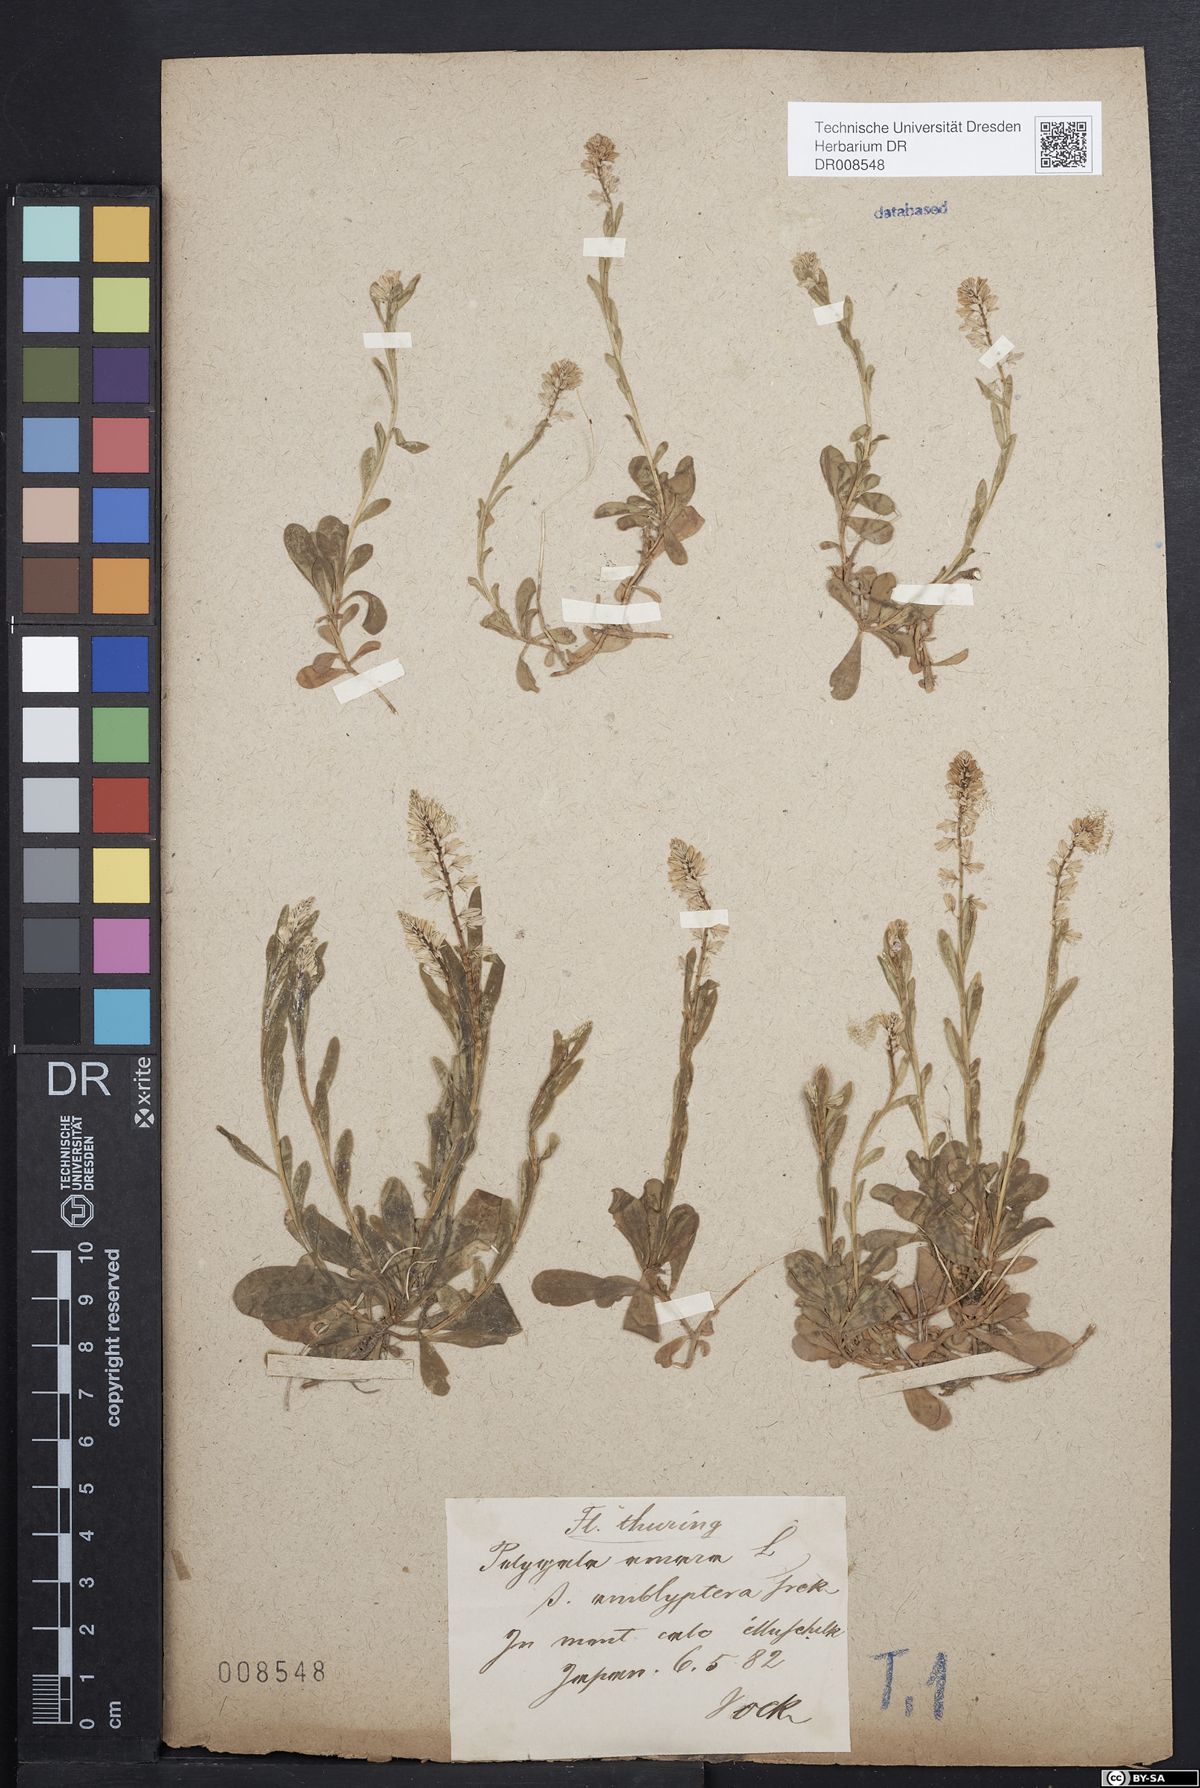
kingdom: Plantae
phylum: Tracheophyta
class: Magnoliopsida
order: Fabales
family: Polygalaceae
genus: Polygala
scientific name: Polygala amarella
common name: Dwarf milkwort
